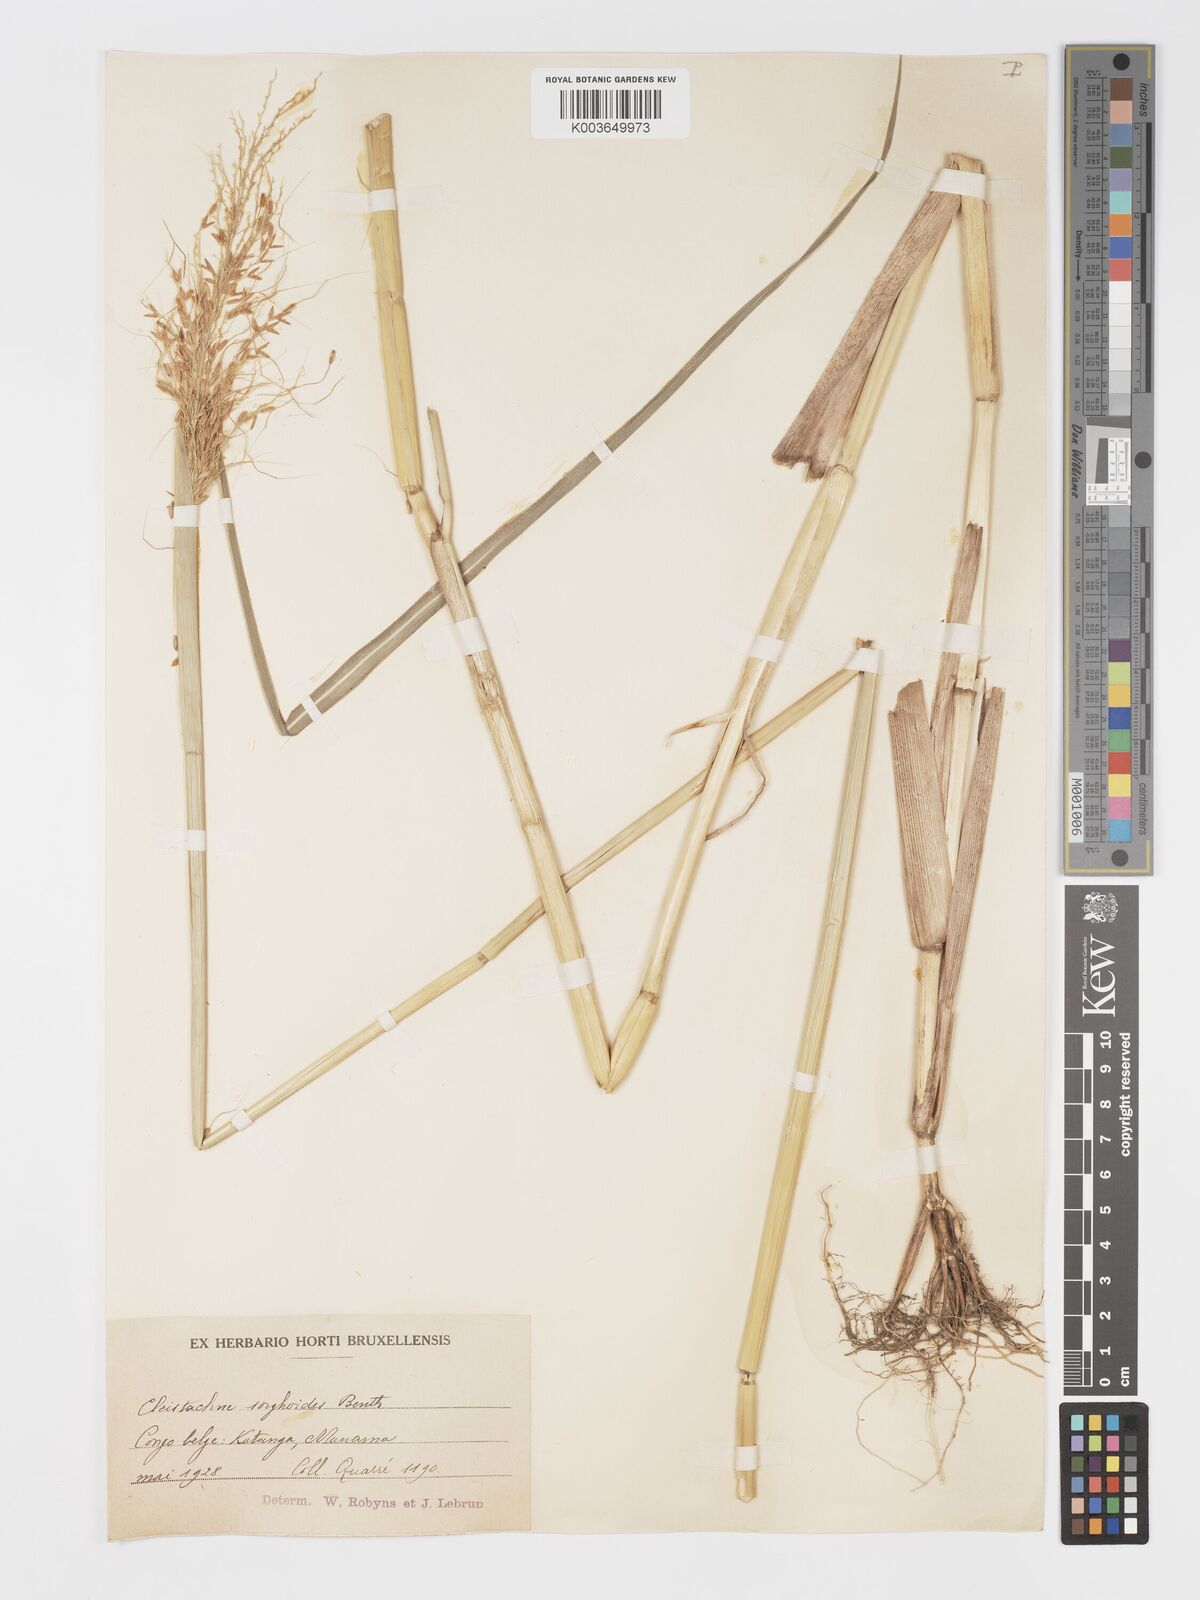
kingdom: Plantae
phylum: Tracheophyta
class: Liliopsida
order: Poales
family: Poaceae
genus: Cleistachne
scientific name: Cleistachne sorghoides
